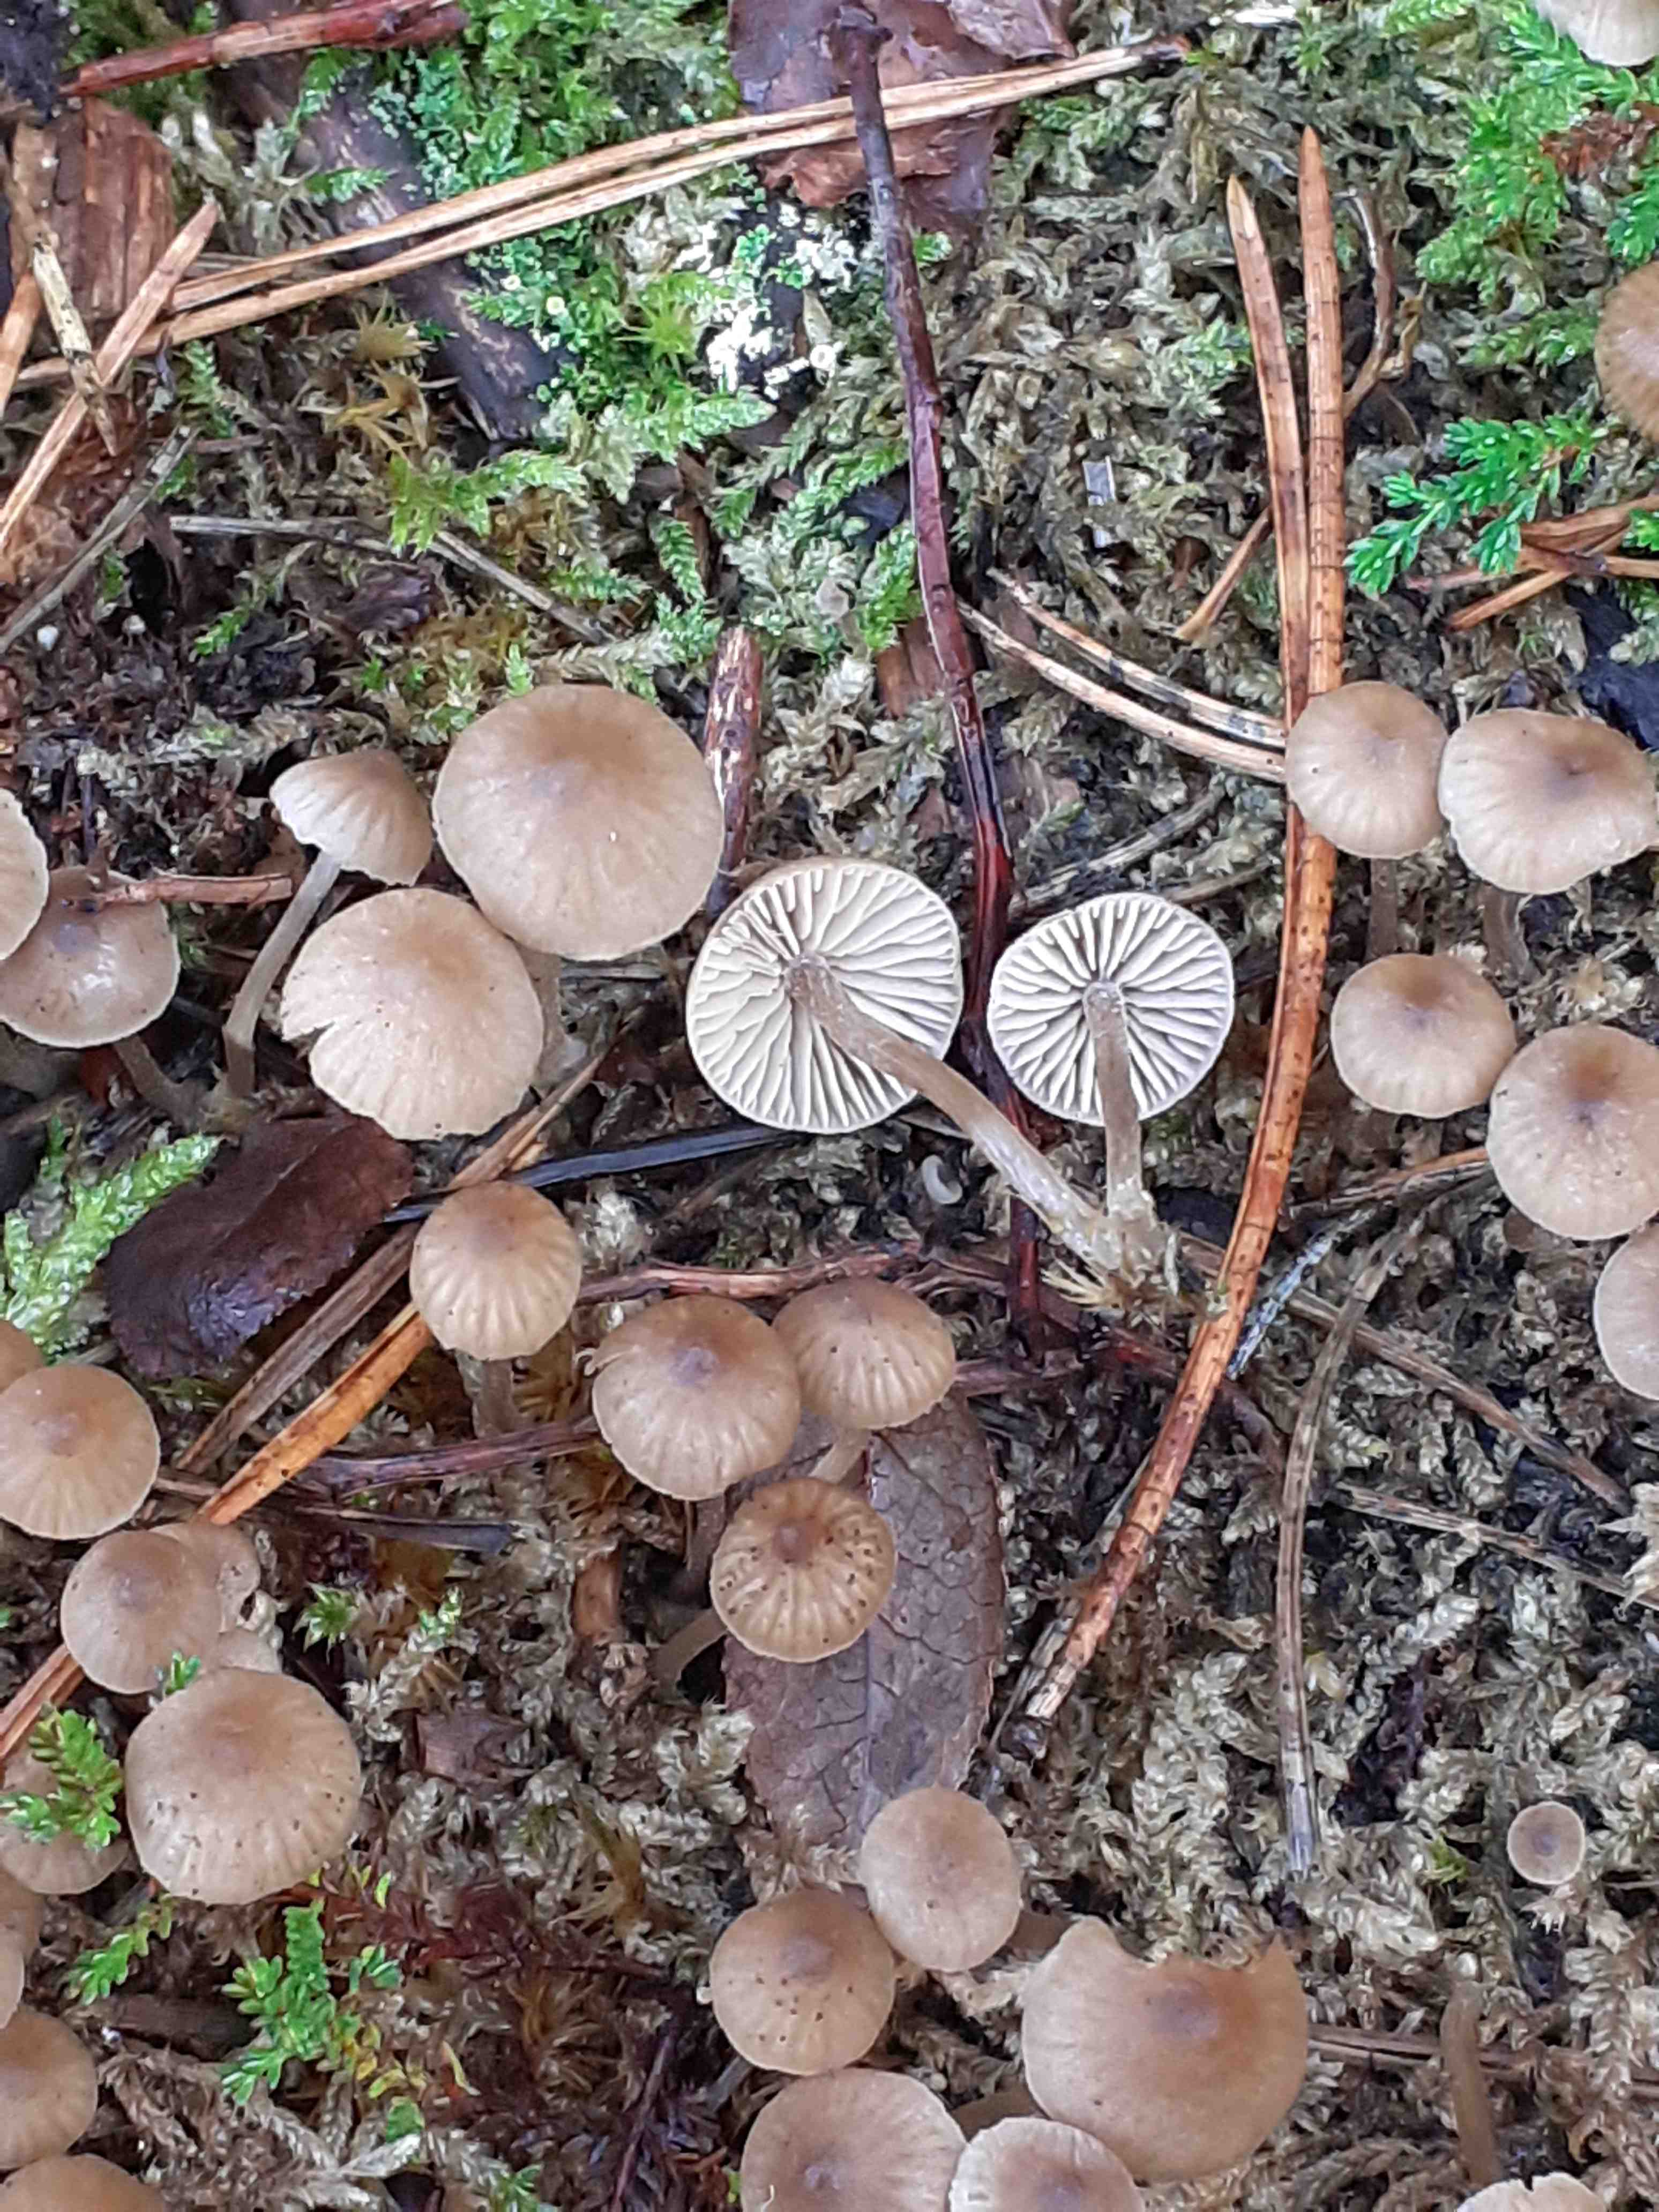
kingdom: Fungi
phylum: Basidiomycota
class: Agaricomycetes
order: Agaricales
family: Lyophyllaceae
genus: Sagaranella
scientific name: Sagaranella tylicolor
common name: kvælstof-gråblad
